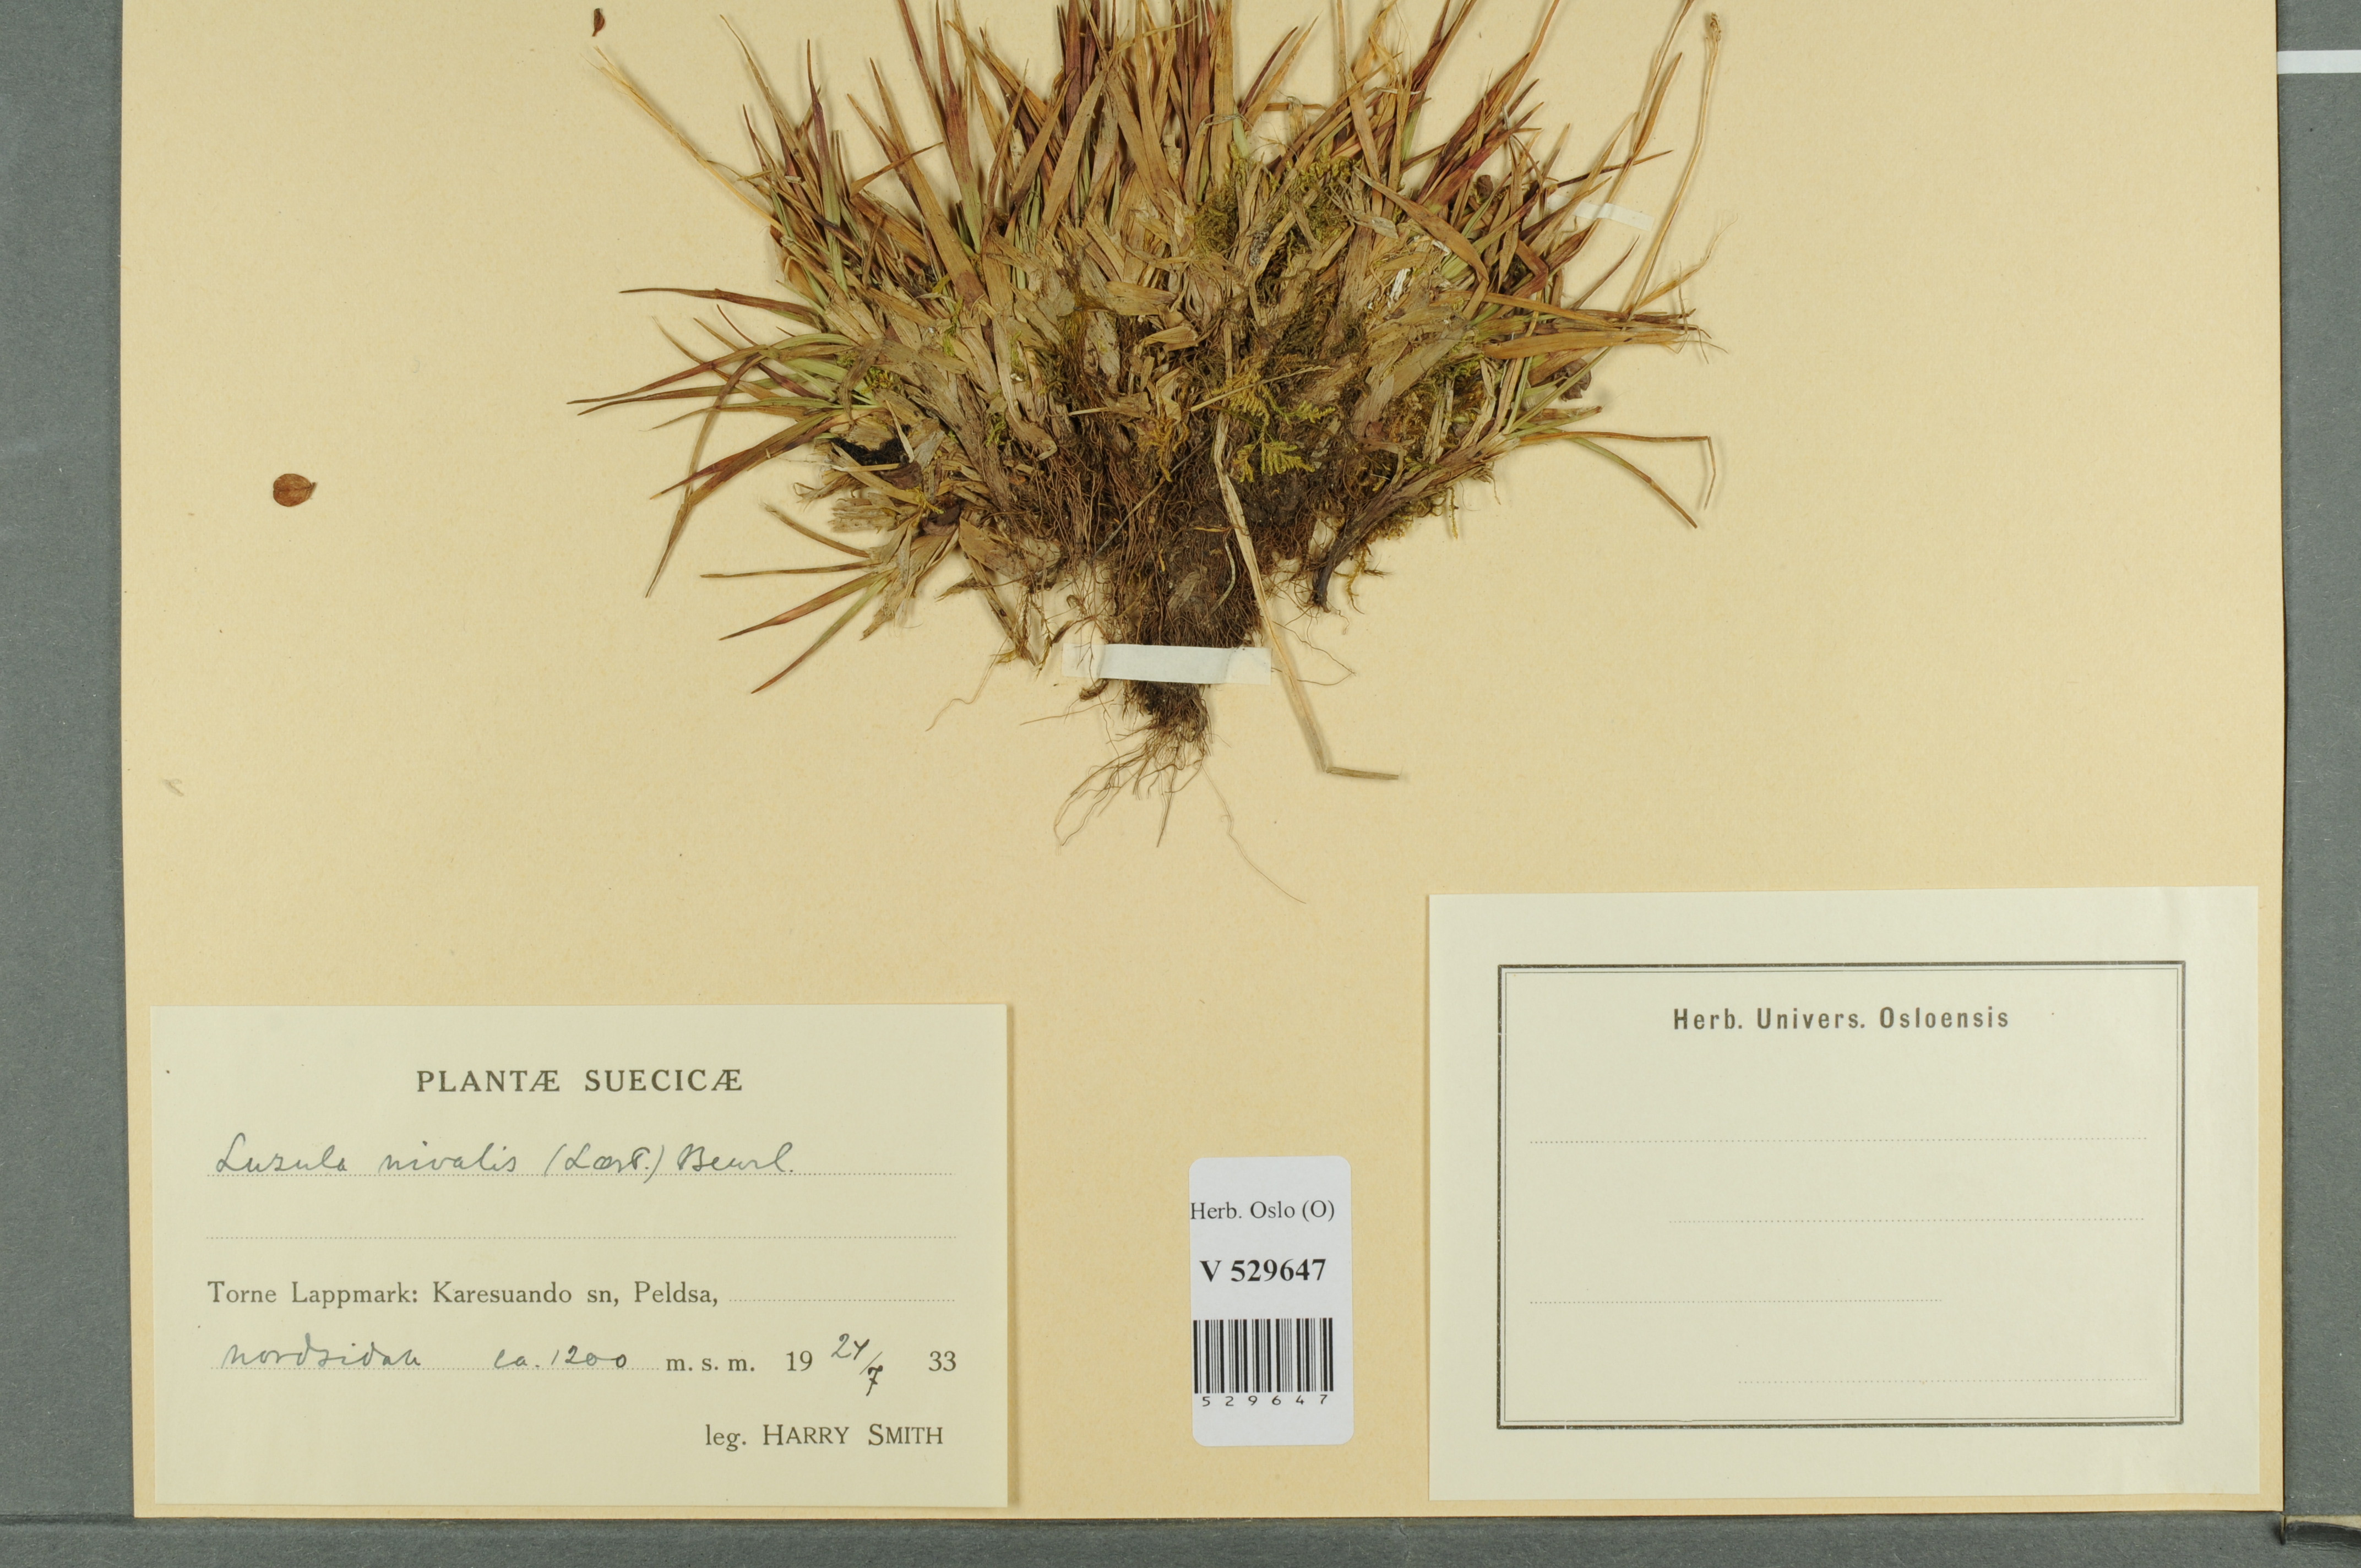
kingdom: Plantae
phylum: Tracheophyta
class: Liliopsida
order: Poales
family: Juncaceae
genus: Luzula
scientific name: Luzula nivalis
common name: Arctic woodrush
